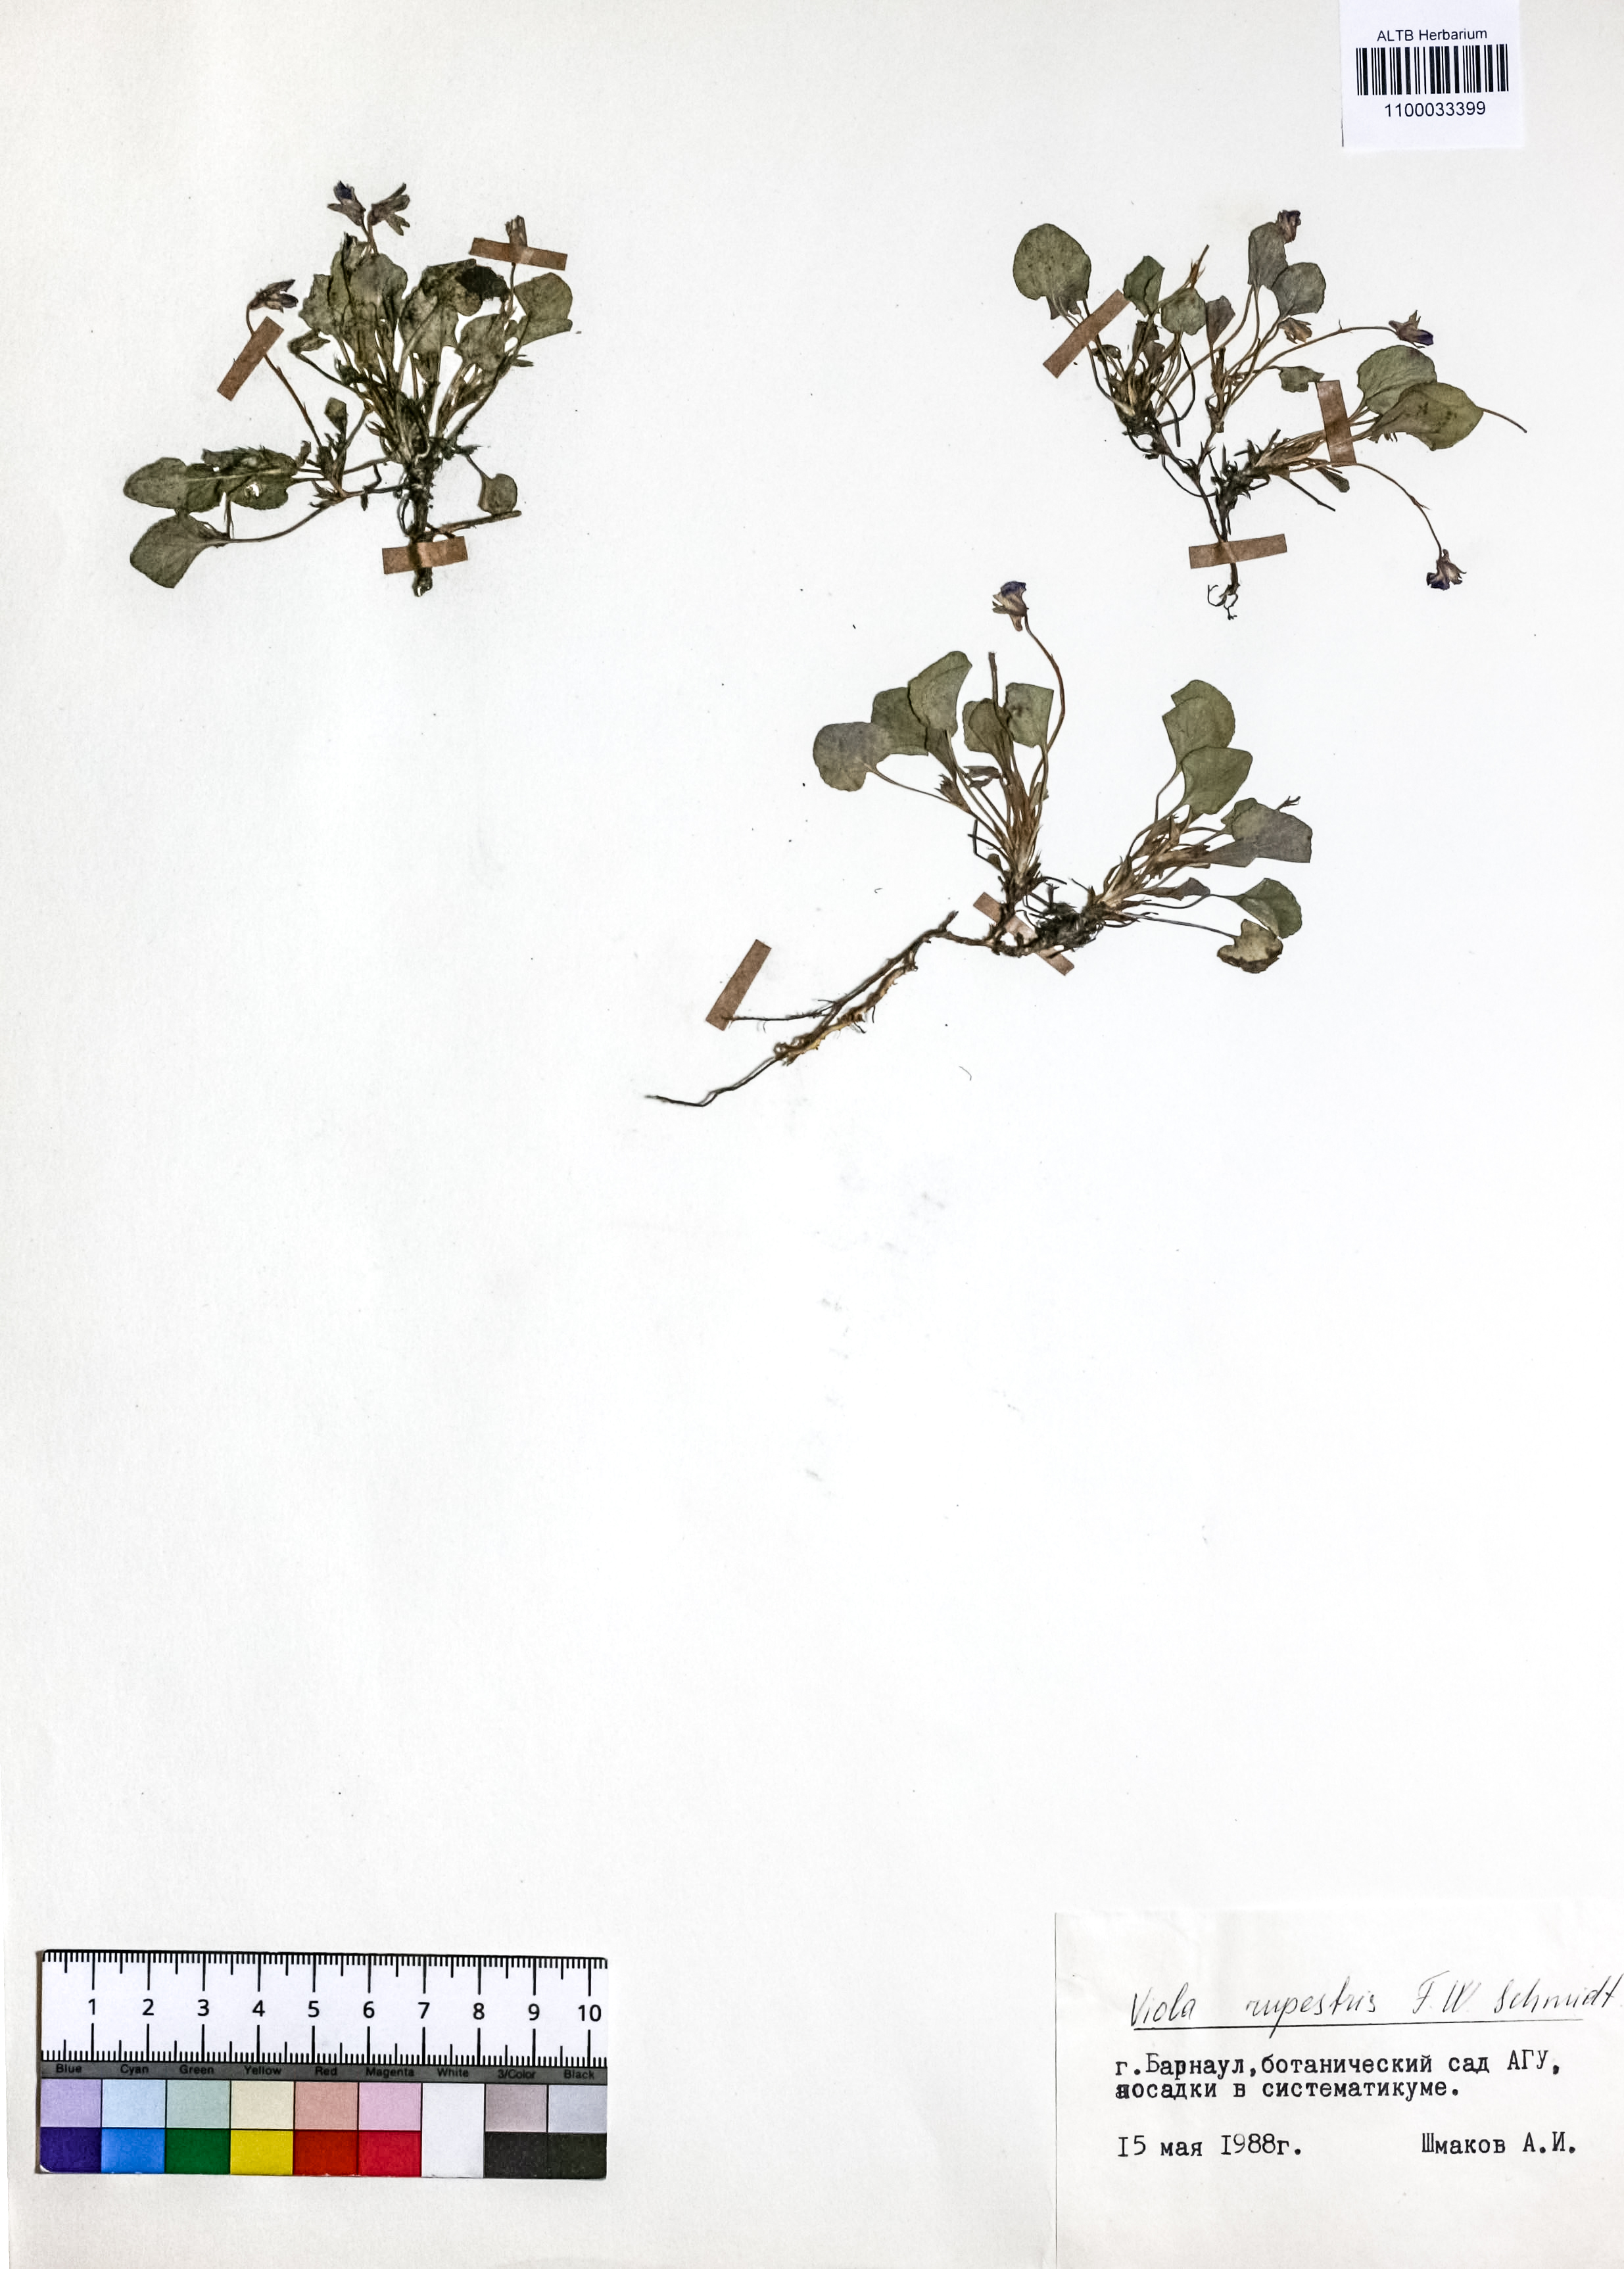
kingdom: Plantae
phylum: Tracheophyta
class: Magnoliopsida
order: Malpighiales
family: Violaceae
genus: Viola
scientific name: Viola rupestris
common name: Teesdale violet
